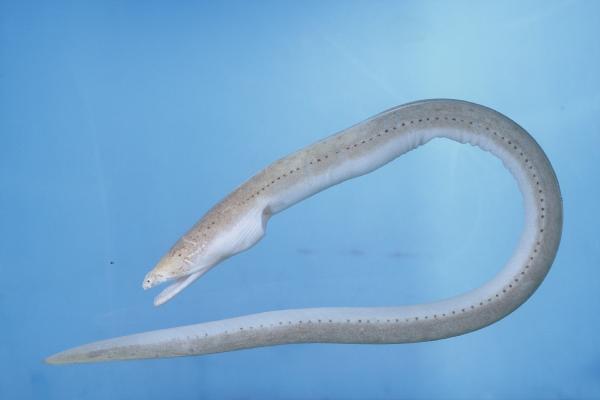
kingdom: Animalia
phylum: Chordata
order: Anguilliformes
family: Ophichthidae
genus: Brachysomophis
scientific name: Brachysomophis crocodilinus
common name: Crocodile snake eel
